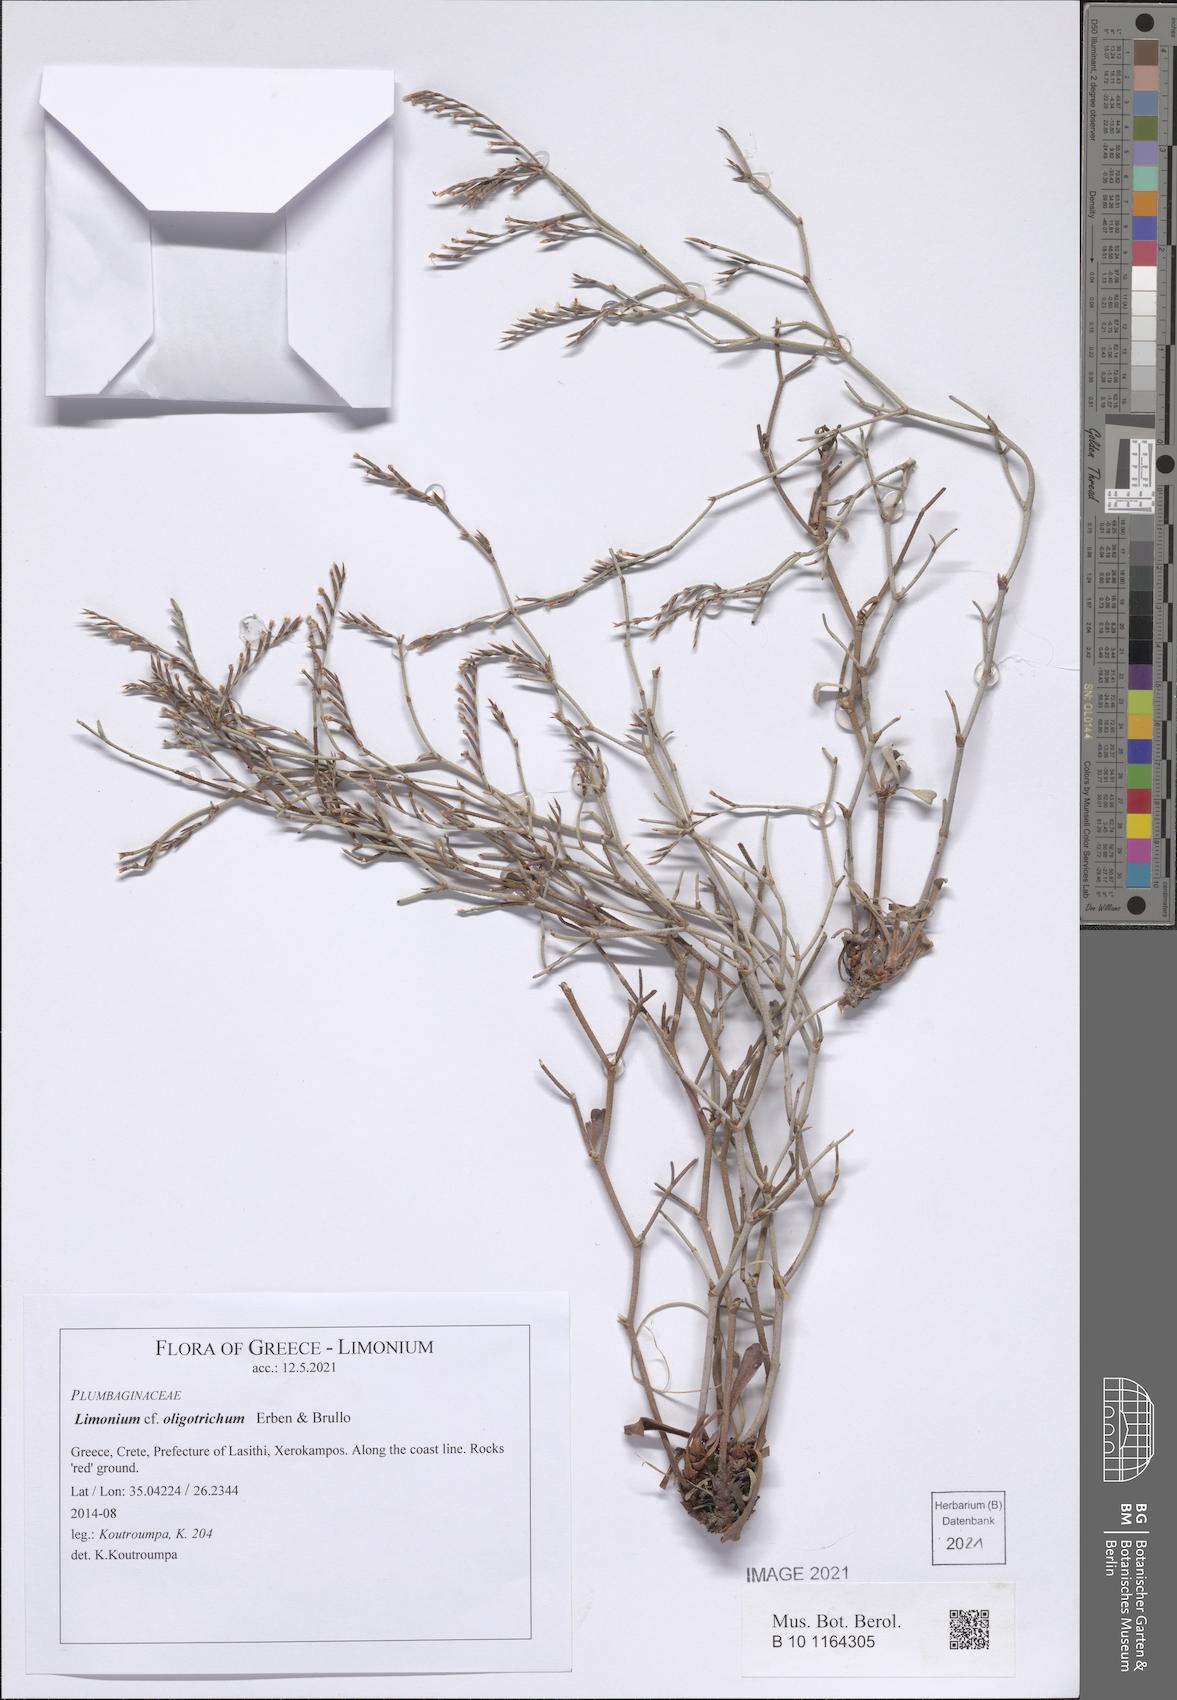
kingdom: Plantae
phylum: Tracheophyta
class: Magnoliopsida
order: Caryophyllales
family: Plumbaginaceae
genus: Limonium
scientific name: Limonium oligotrichum
